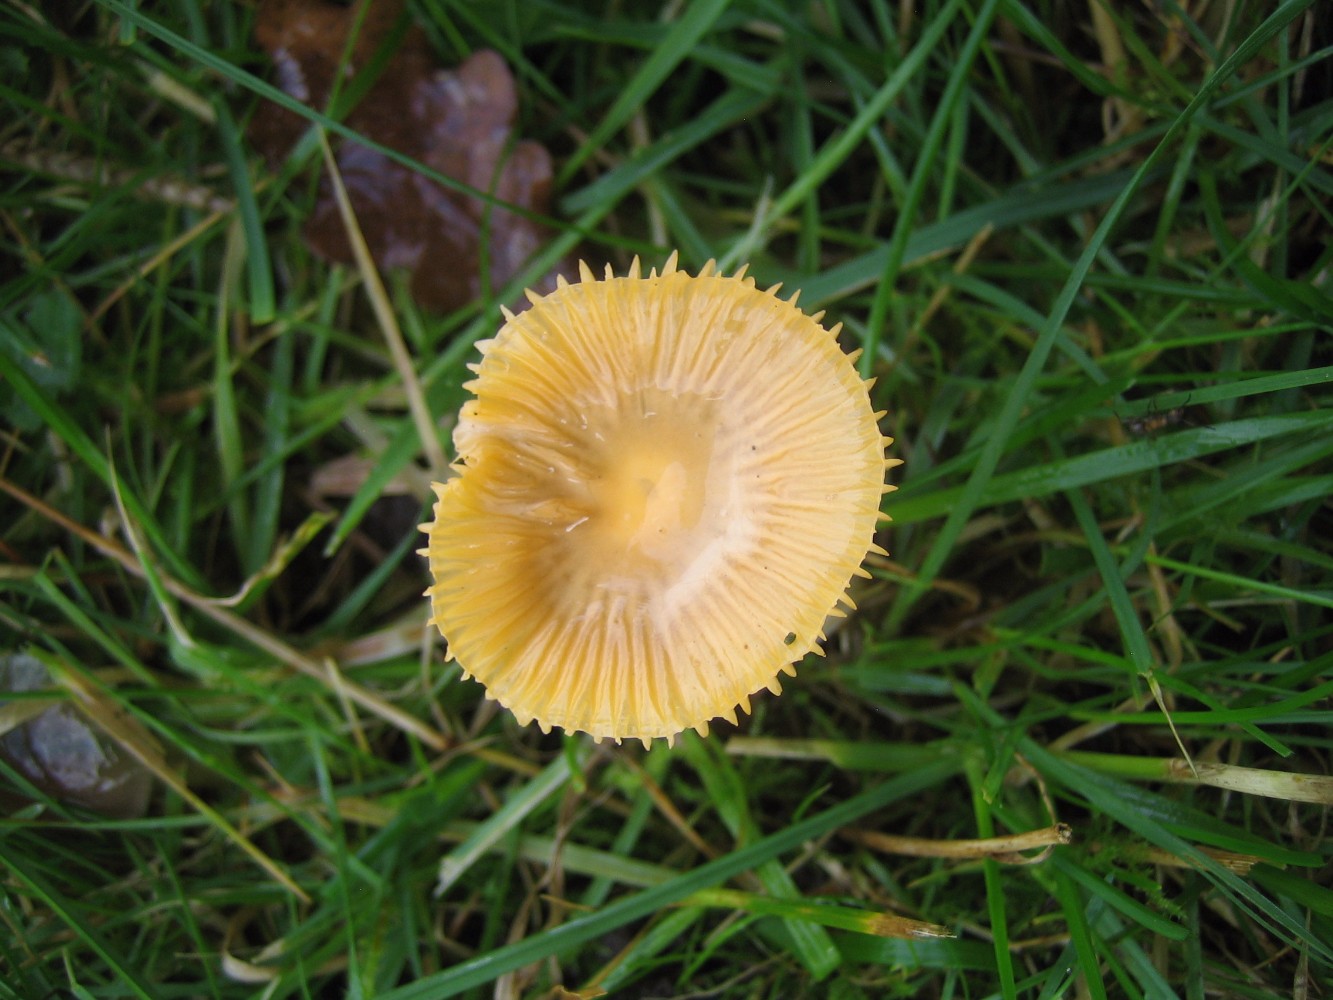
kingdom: Fungi
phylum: Basidiomycota
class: Agaricomycetes
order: Agaricales
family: Hygrophoraceae
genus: Gliophorus
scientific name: Gliophorus psittacinus
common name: papegøje-vokshat
